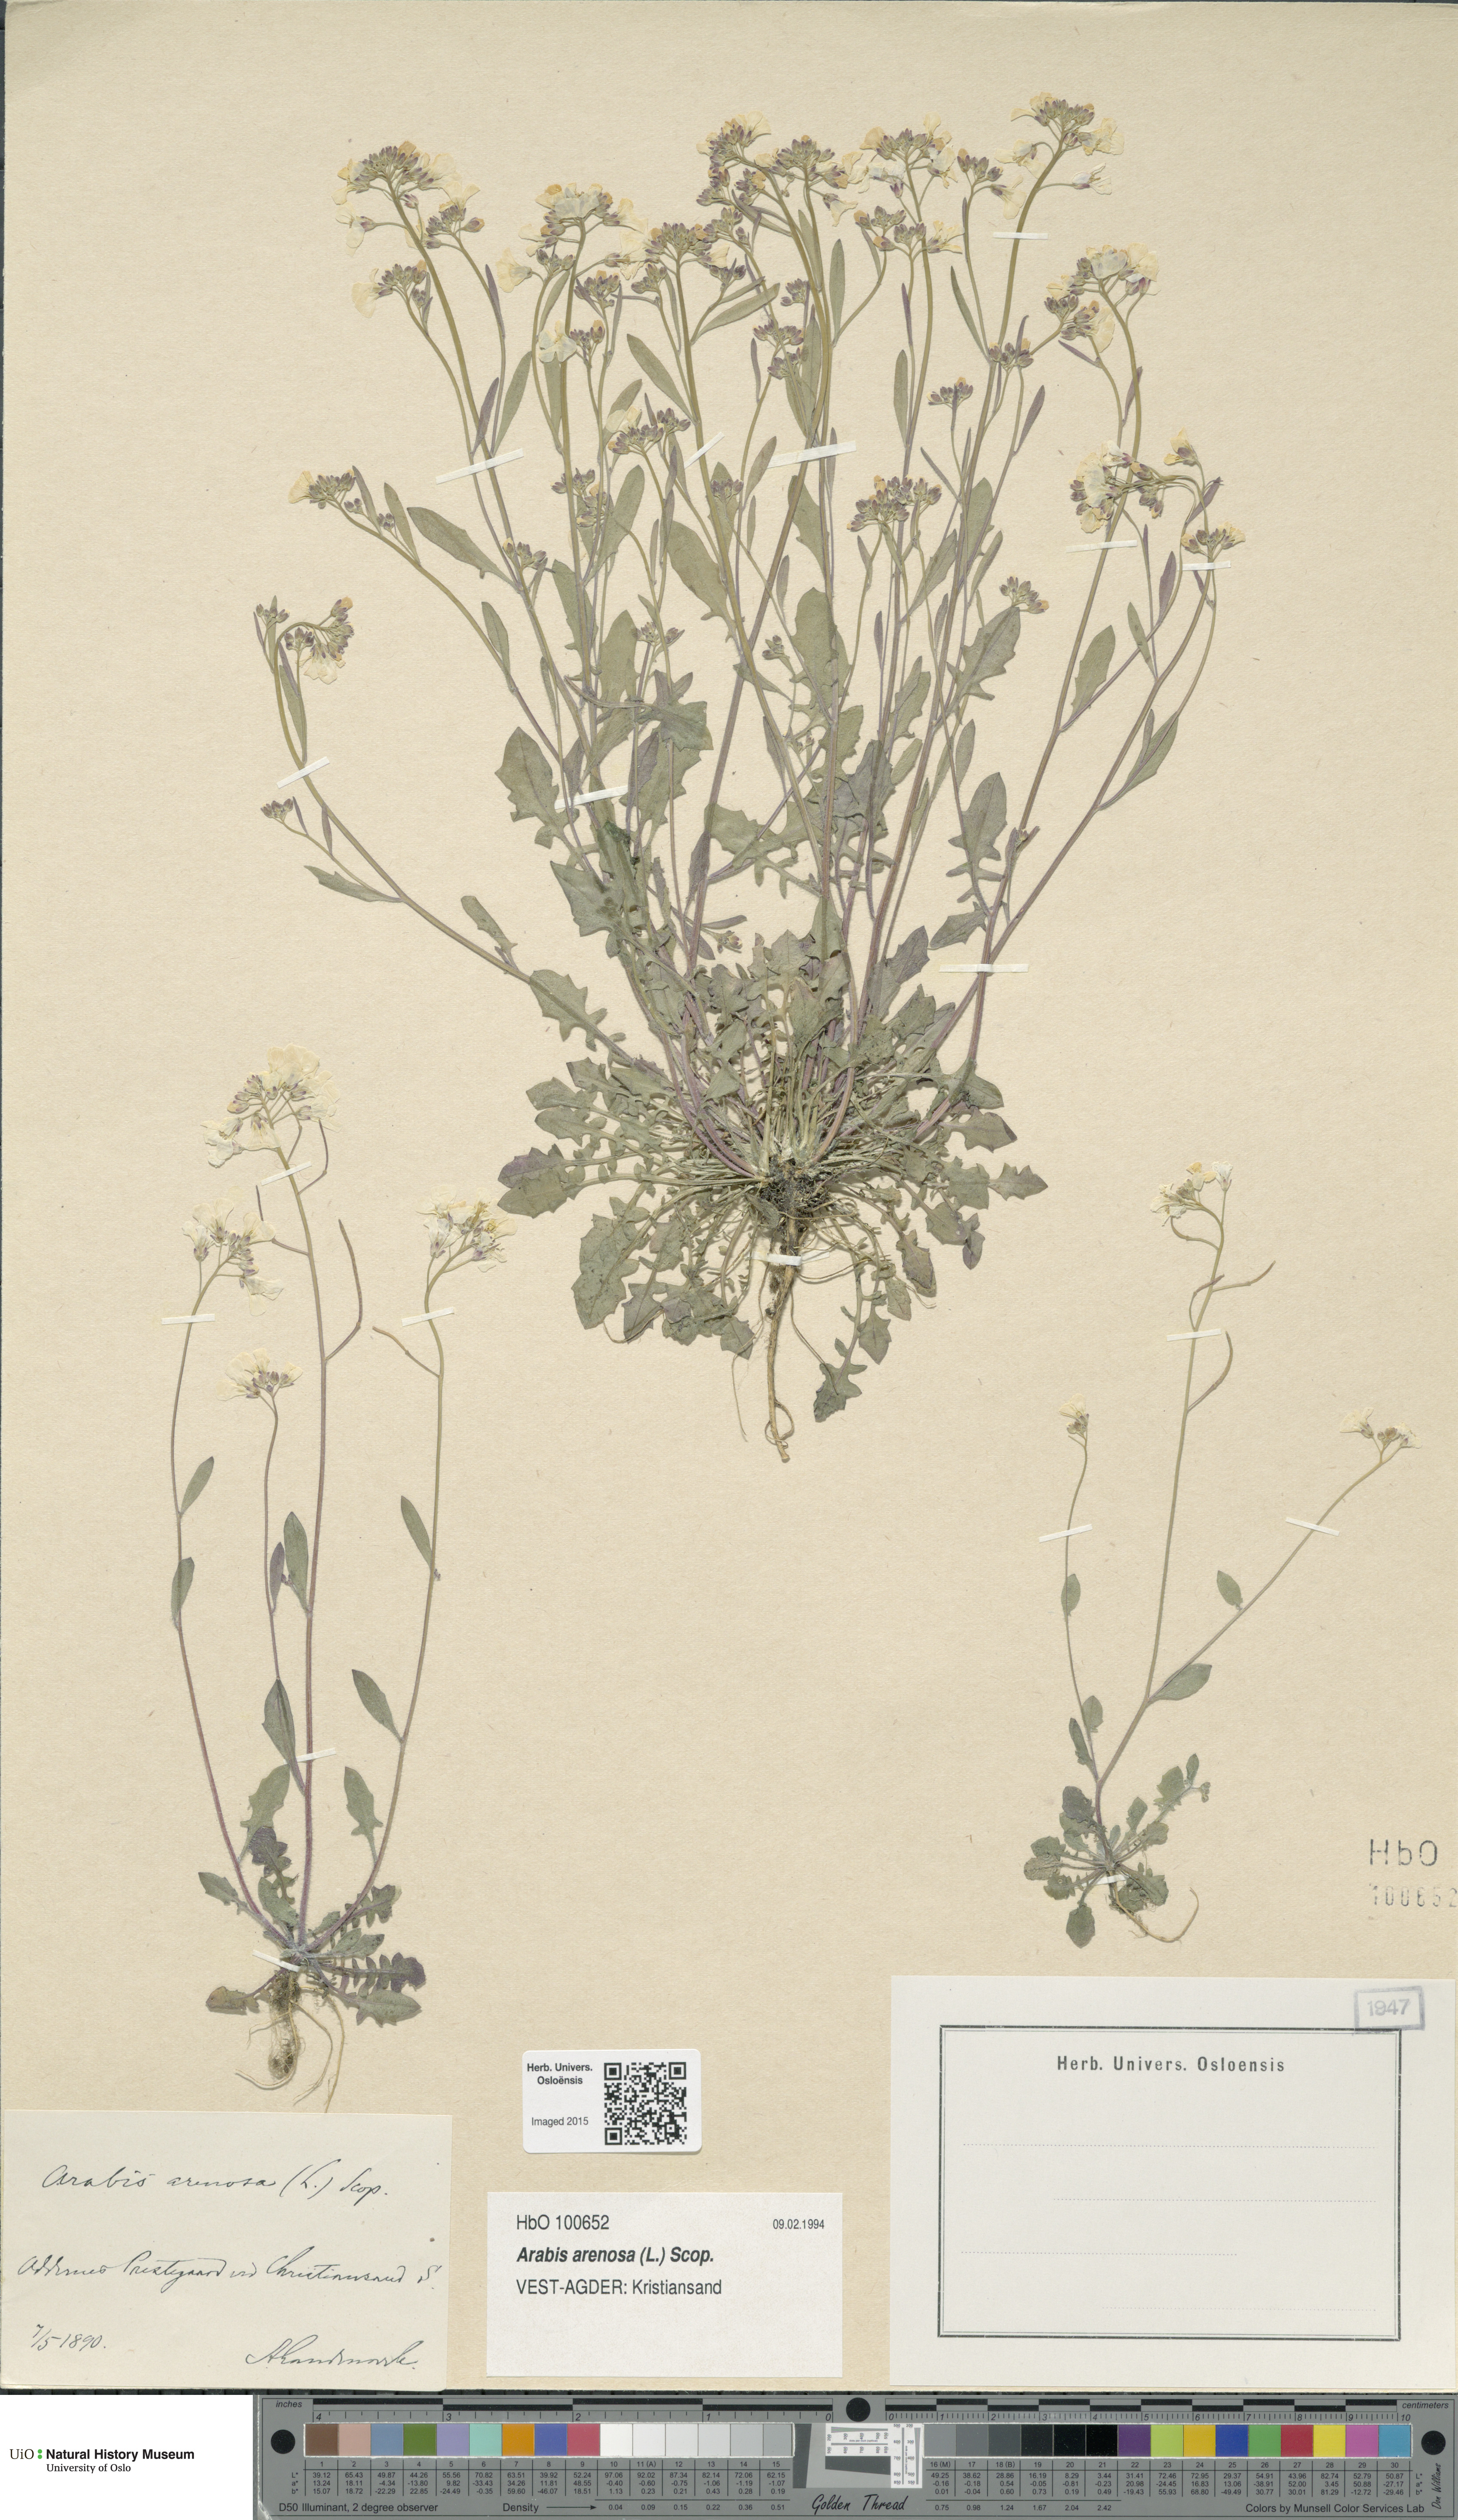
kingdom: Plantae
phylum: Tracheophyta
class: Magnoliopsida
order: Brassicales
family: Brassicaceae
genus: Arabidopsis
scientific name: Arabidopsis arenosa
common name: Sand rock-cress
